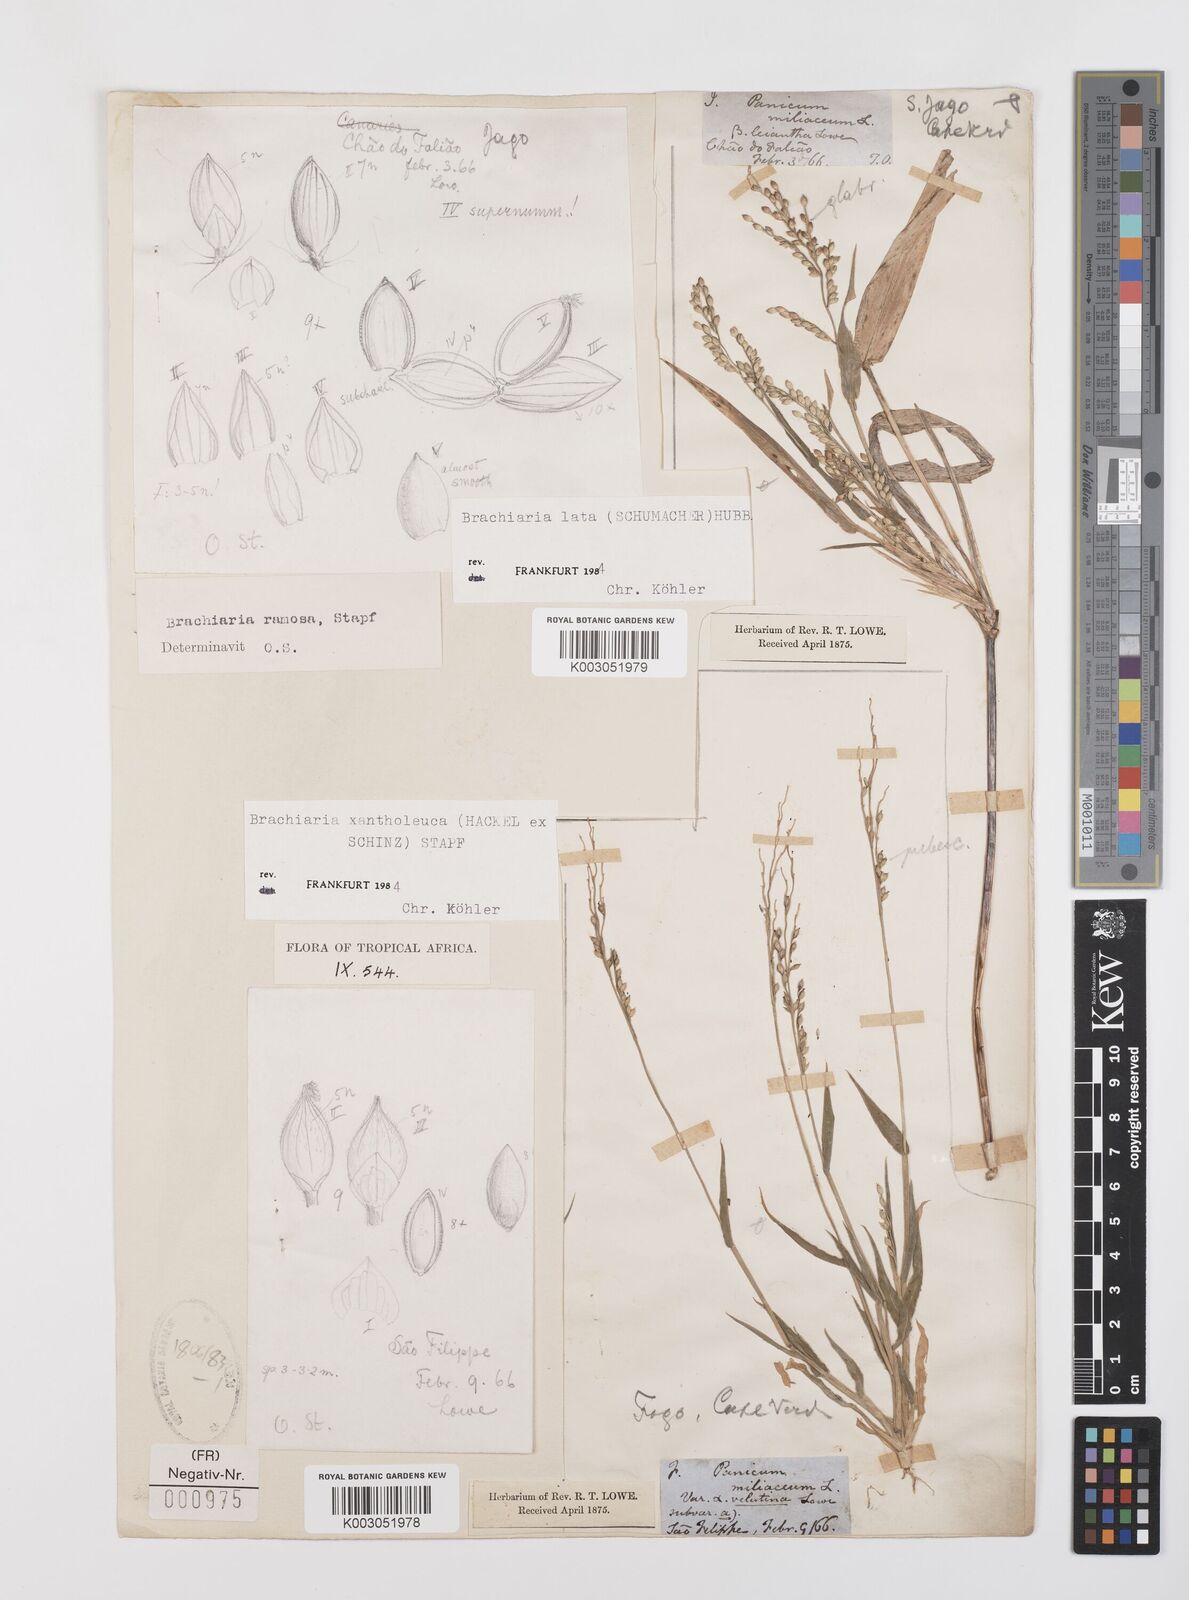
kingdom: Plantae
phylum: Tracheophyta
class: Liliopsida
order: Poales
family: Poaceae
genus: Urochloa
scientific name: Urochloa ramosa
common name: Browntop millet
